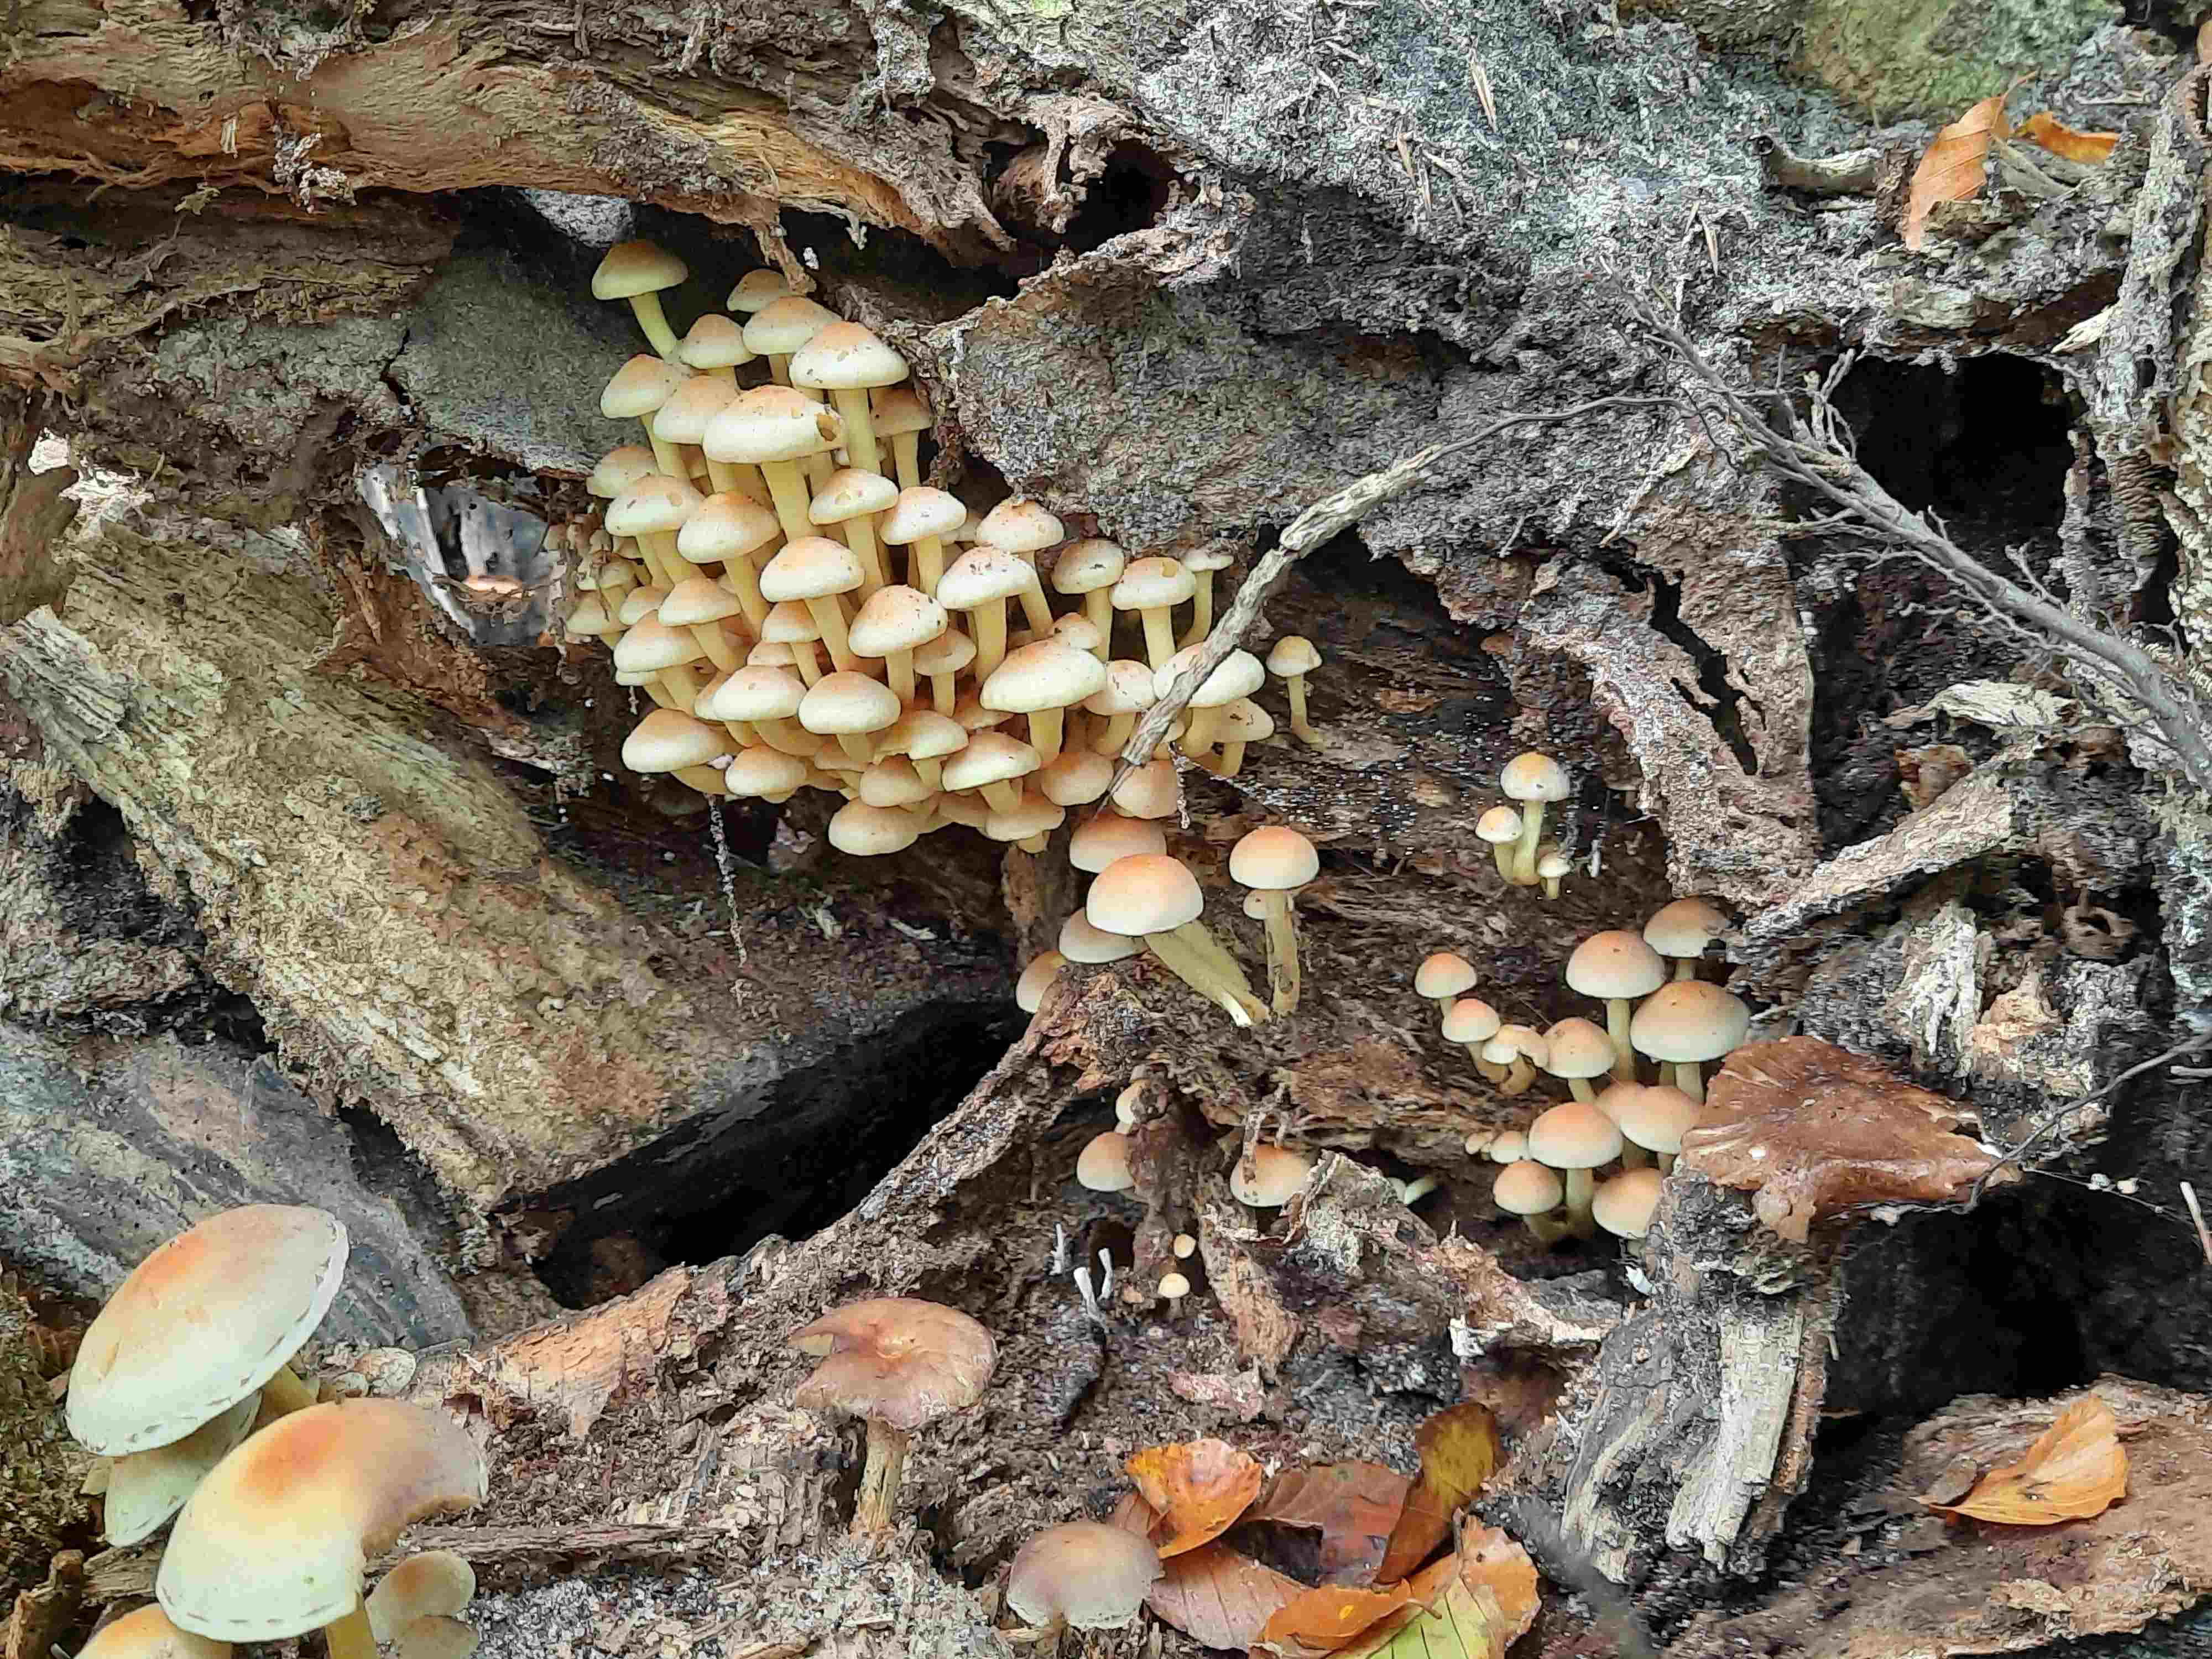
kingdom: Fungi
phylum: Basidiomycota
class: Agaricomycetes
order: Agaricales
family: Strophariaceae
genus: Hypholoma
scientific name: Hypholoma fasciculare
